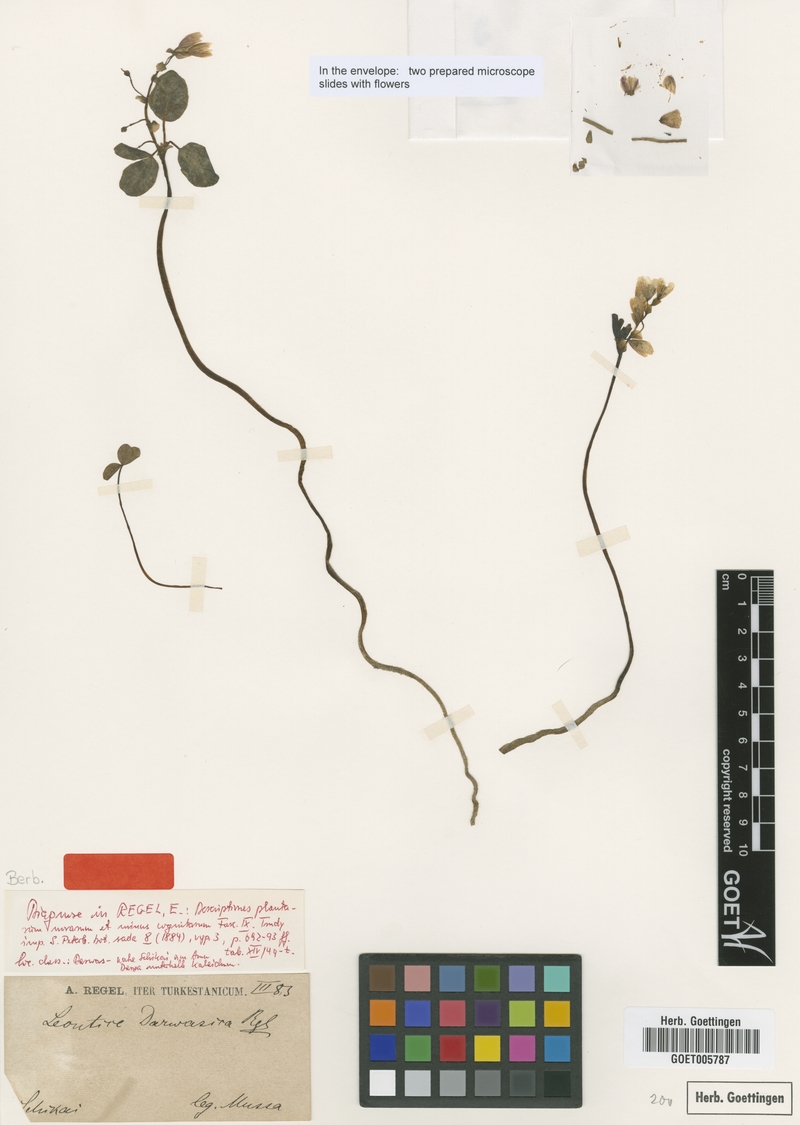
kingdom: Plantae
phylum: Tracheophyta
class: Magnoliopsida
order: Ranunculales
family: Berberidaceae
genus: Gymnospermium
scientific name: Gymnospermium darwasicum
